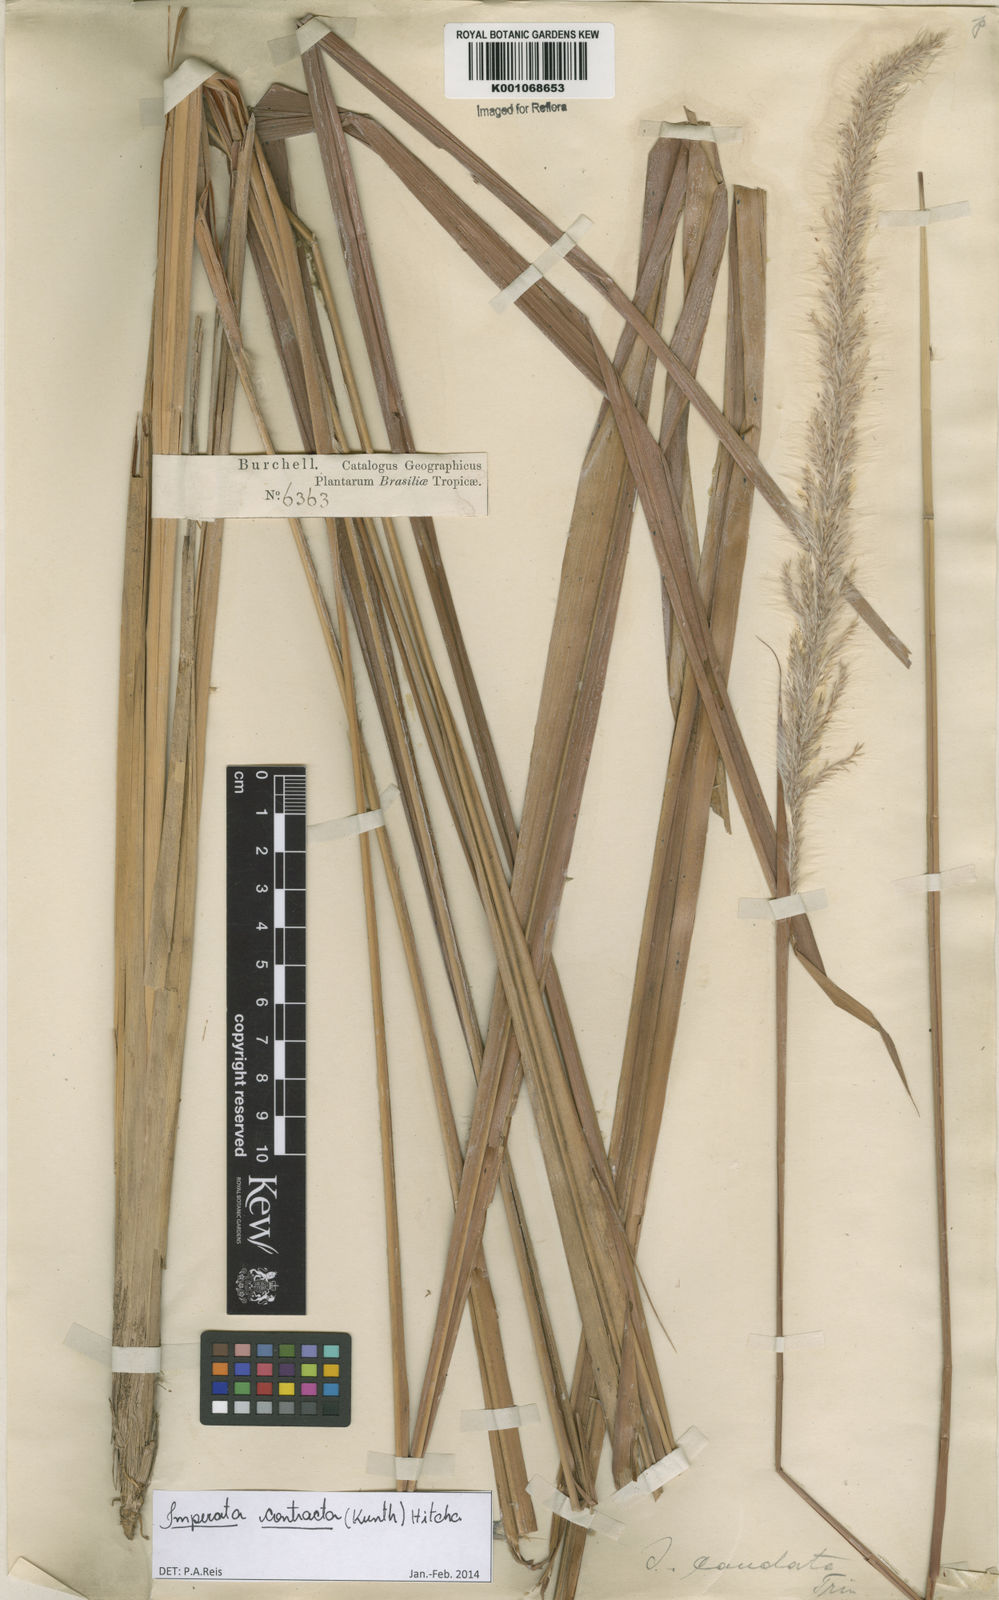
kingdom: Plantae
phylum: Tracheophyta
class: Liliopsida
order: Poales
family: Poaceae
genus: Imperata
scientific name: Imperata contracta
